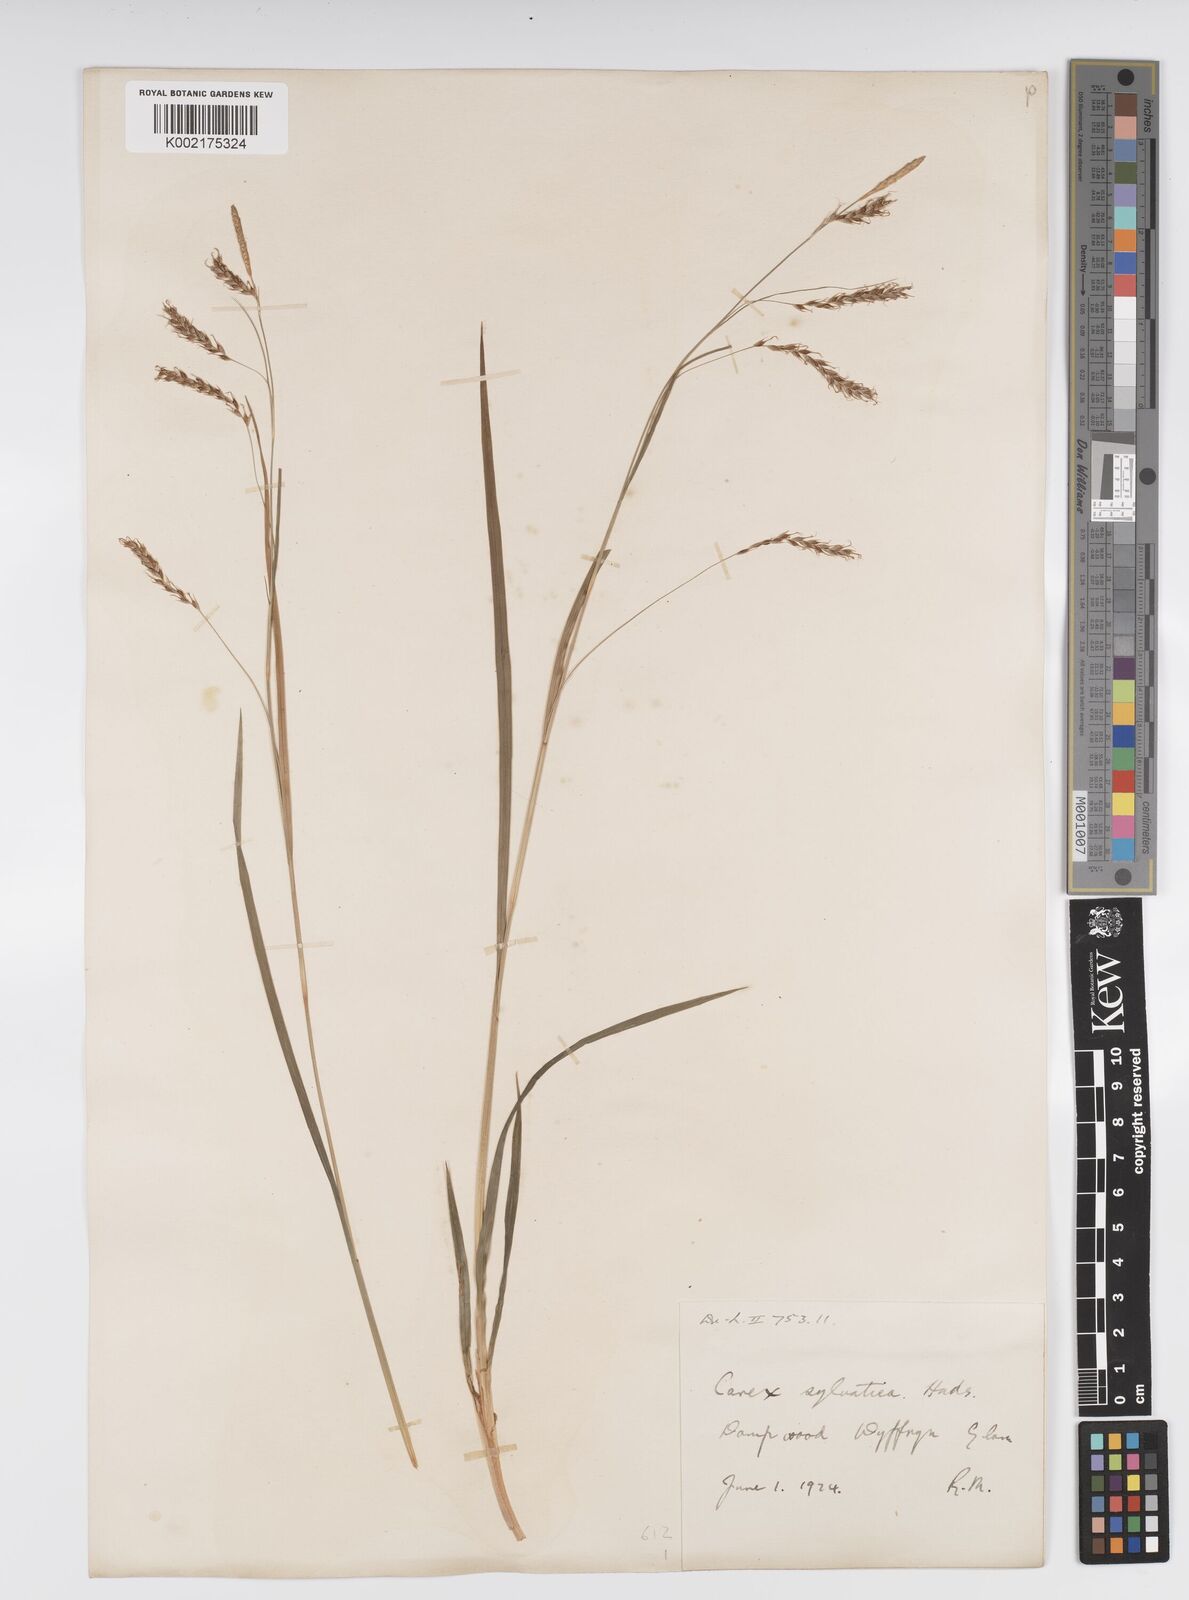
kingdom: Plantae
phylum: Tracheophyta
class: Liliopsida
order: Poales
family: Cyperaceae
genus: Carex
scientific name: Carex sylvatica
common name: Wood-sedge
